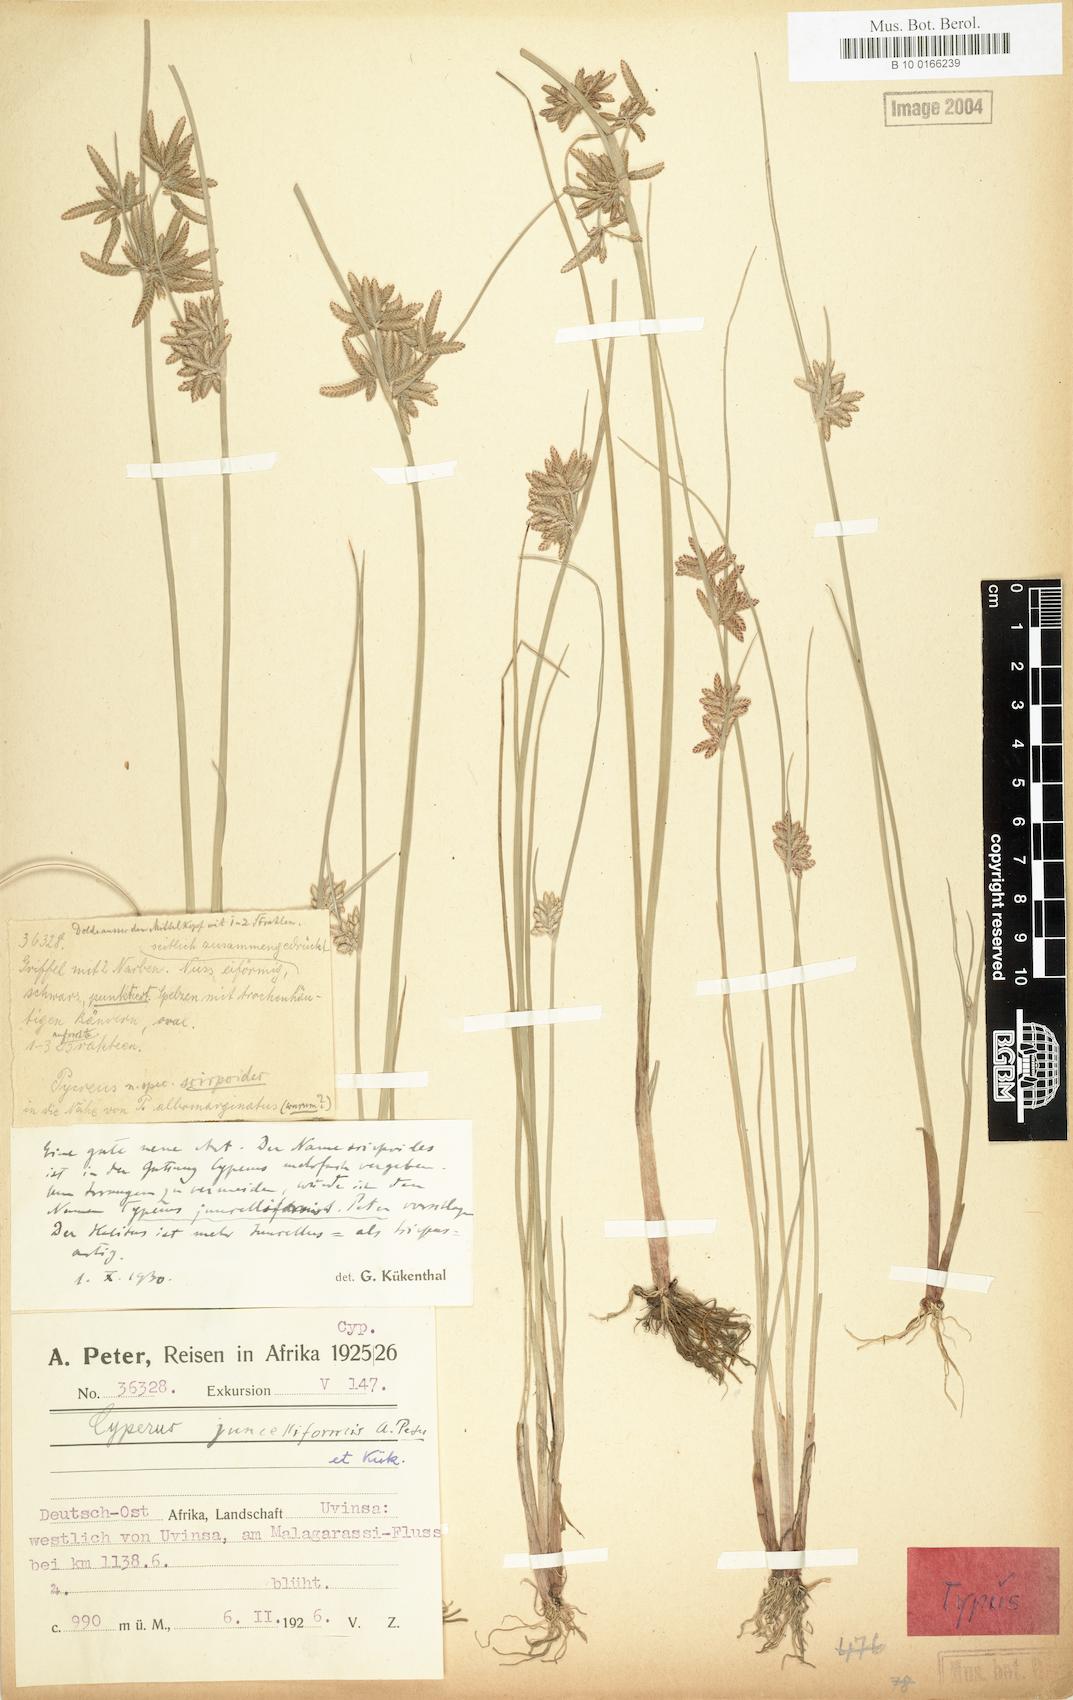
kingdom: Plantae
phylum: Tracheophyta
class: Liliopsida
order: Poales
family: Cyperaceae
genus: Cyperus
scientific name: Cyperus juncelliformis
